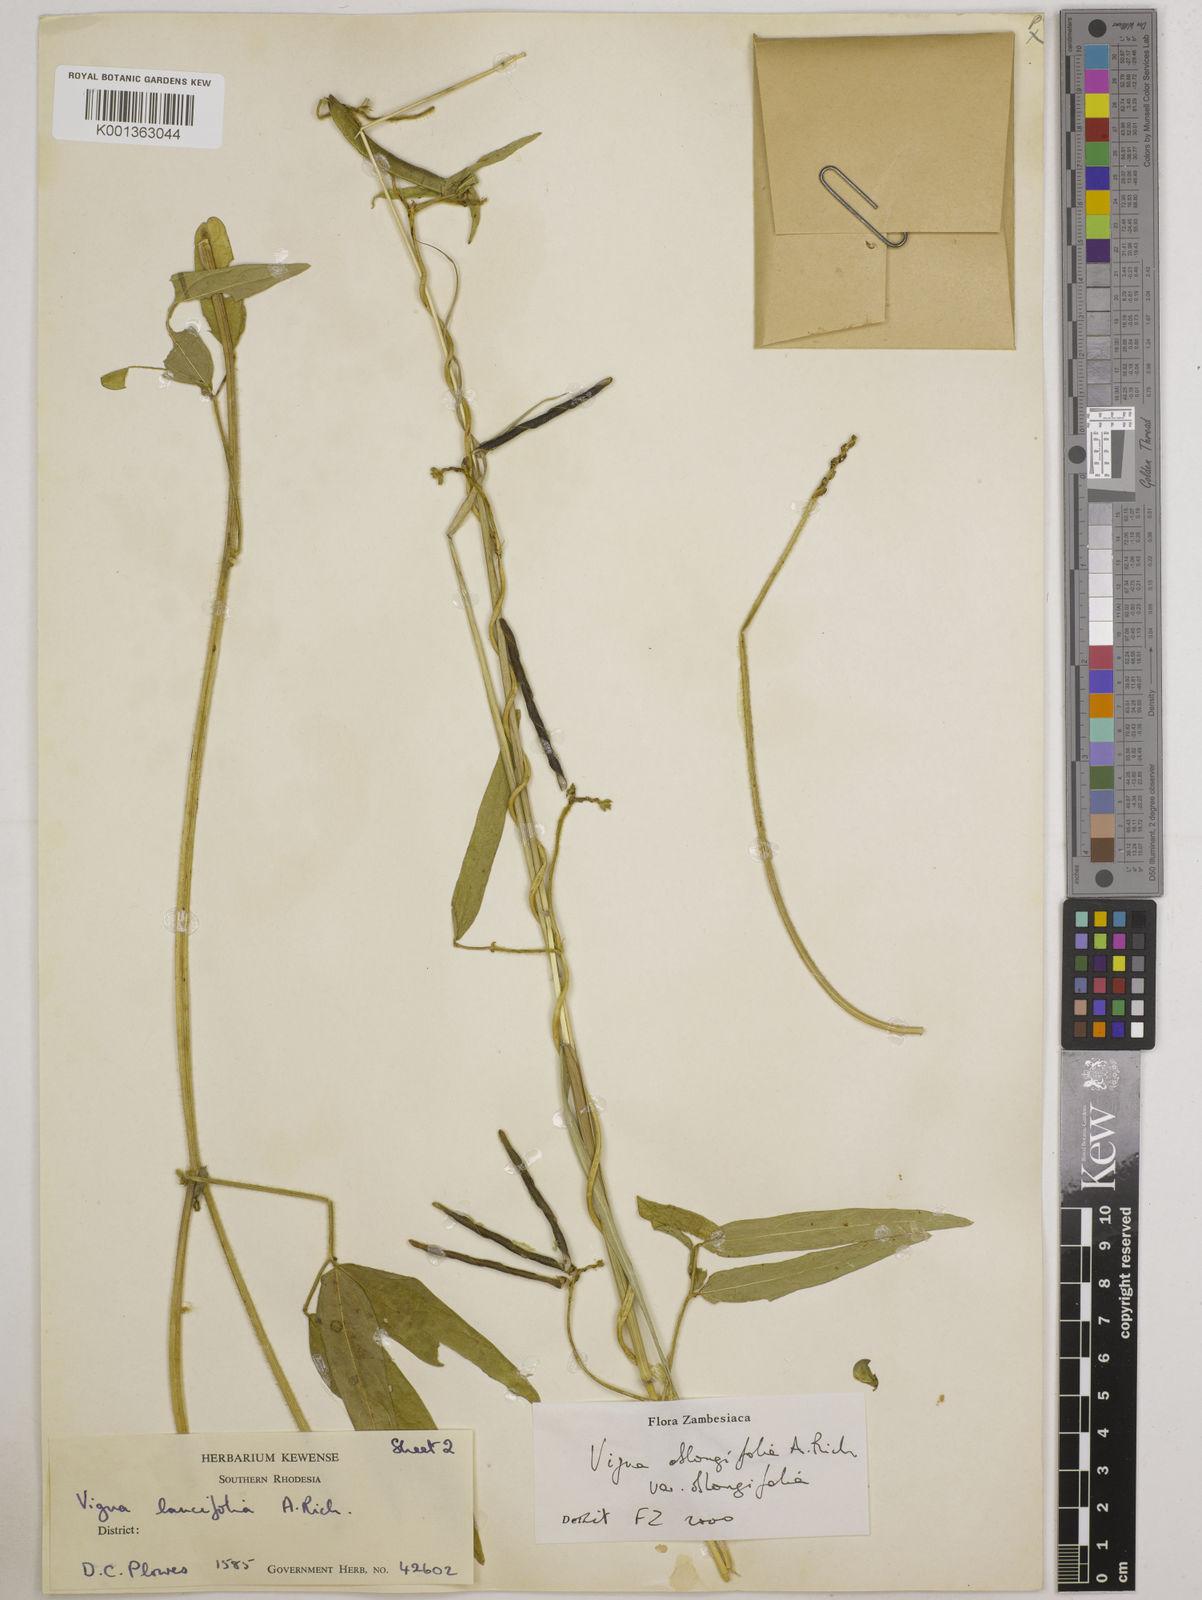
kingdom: Plantae
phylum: Tracheophyta
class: Magnoliopsida
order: Fabales
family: Fabaceae
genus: Vigna
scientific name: Vigna oblongifolia
